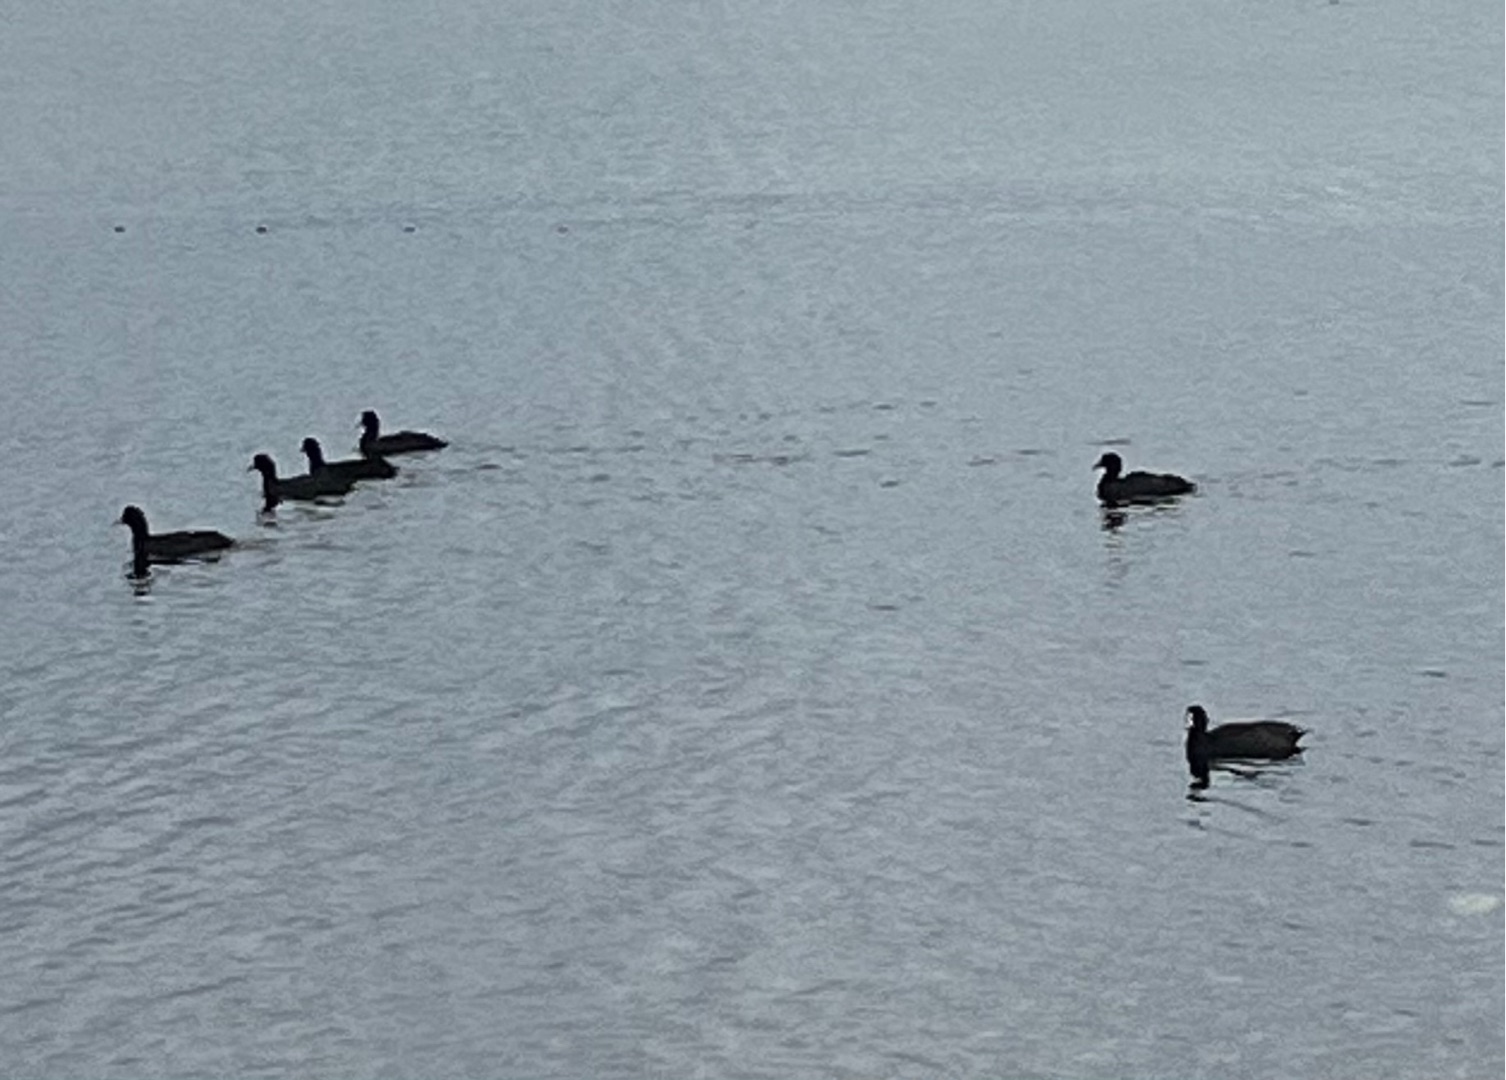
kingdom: Animalia
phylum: Chordata
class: Aves
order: Gruiformes
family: Rallidae
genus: Fulica
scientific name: Fulica atra
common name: Blishøne
